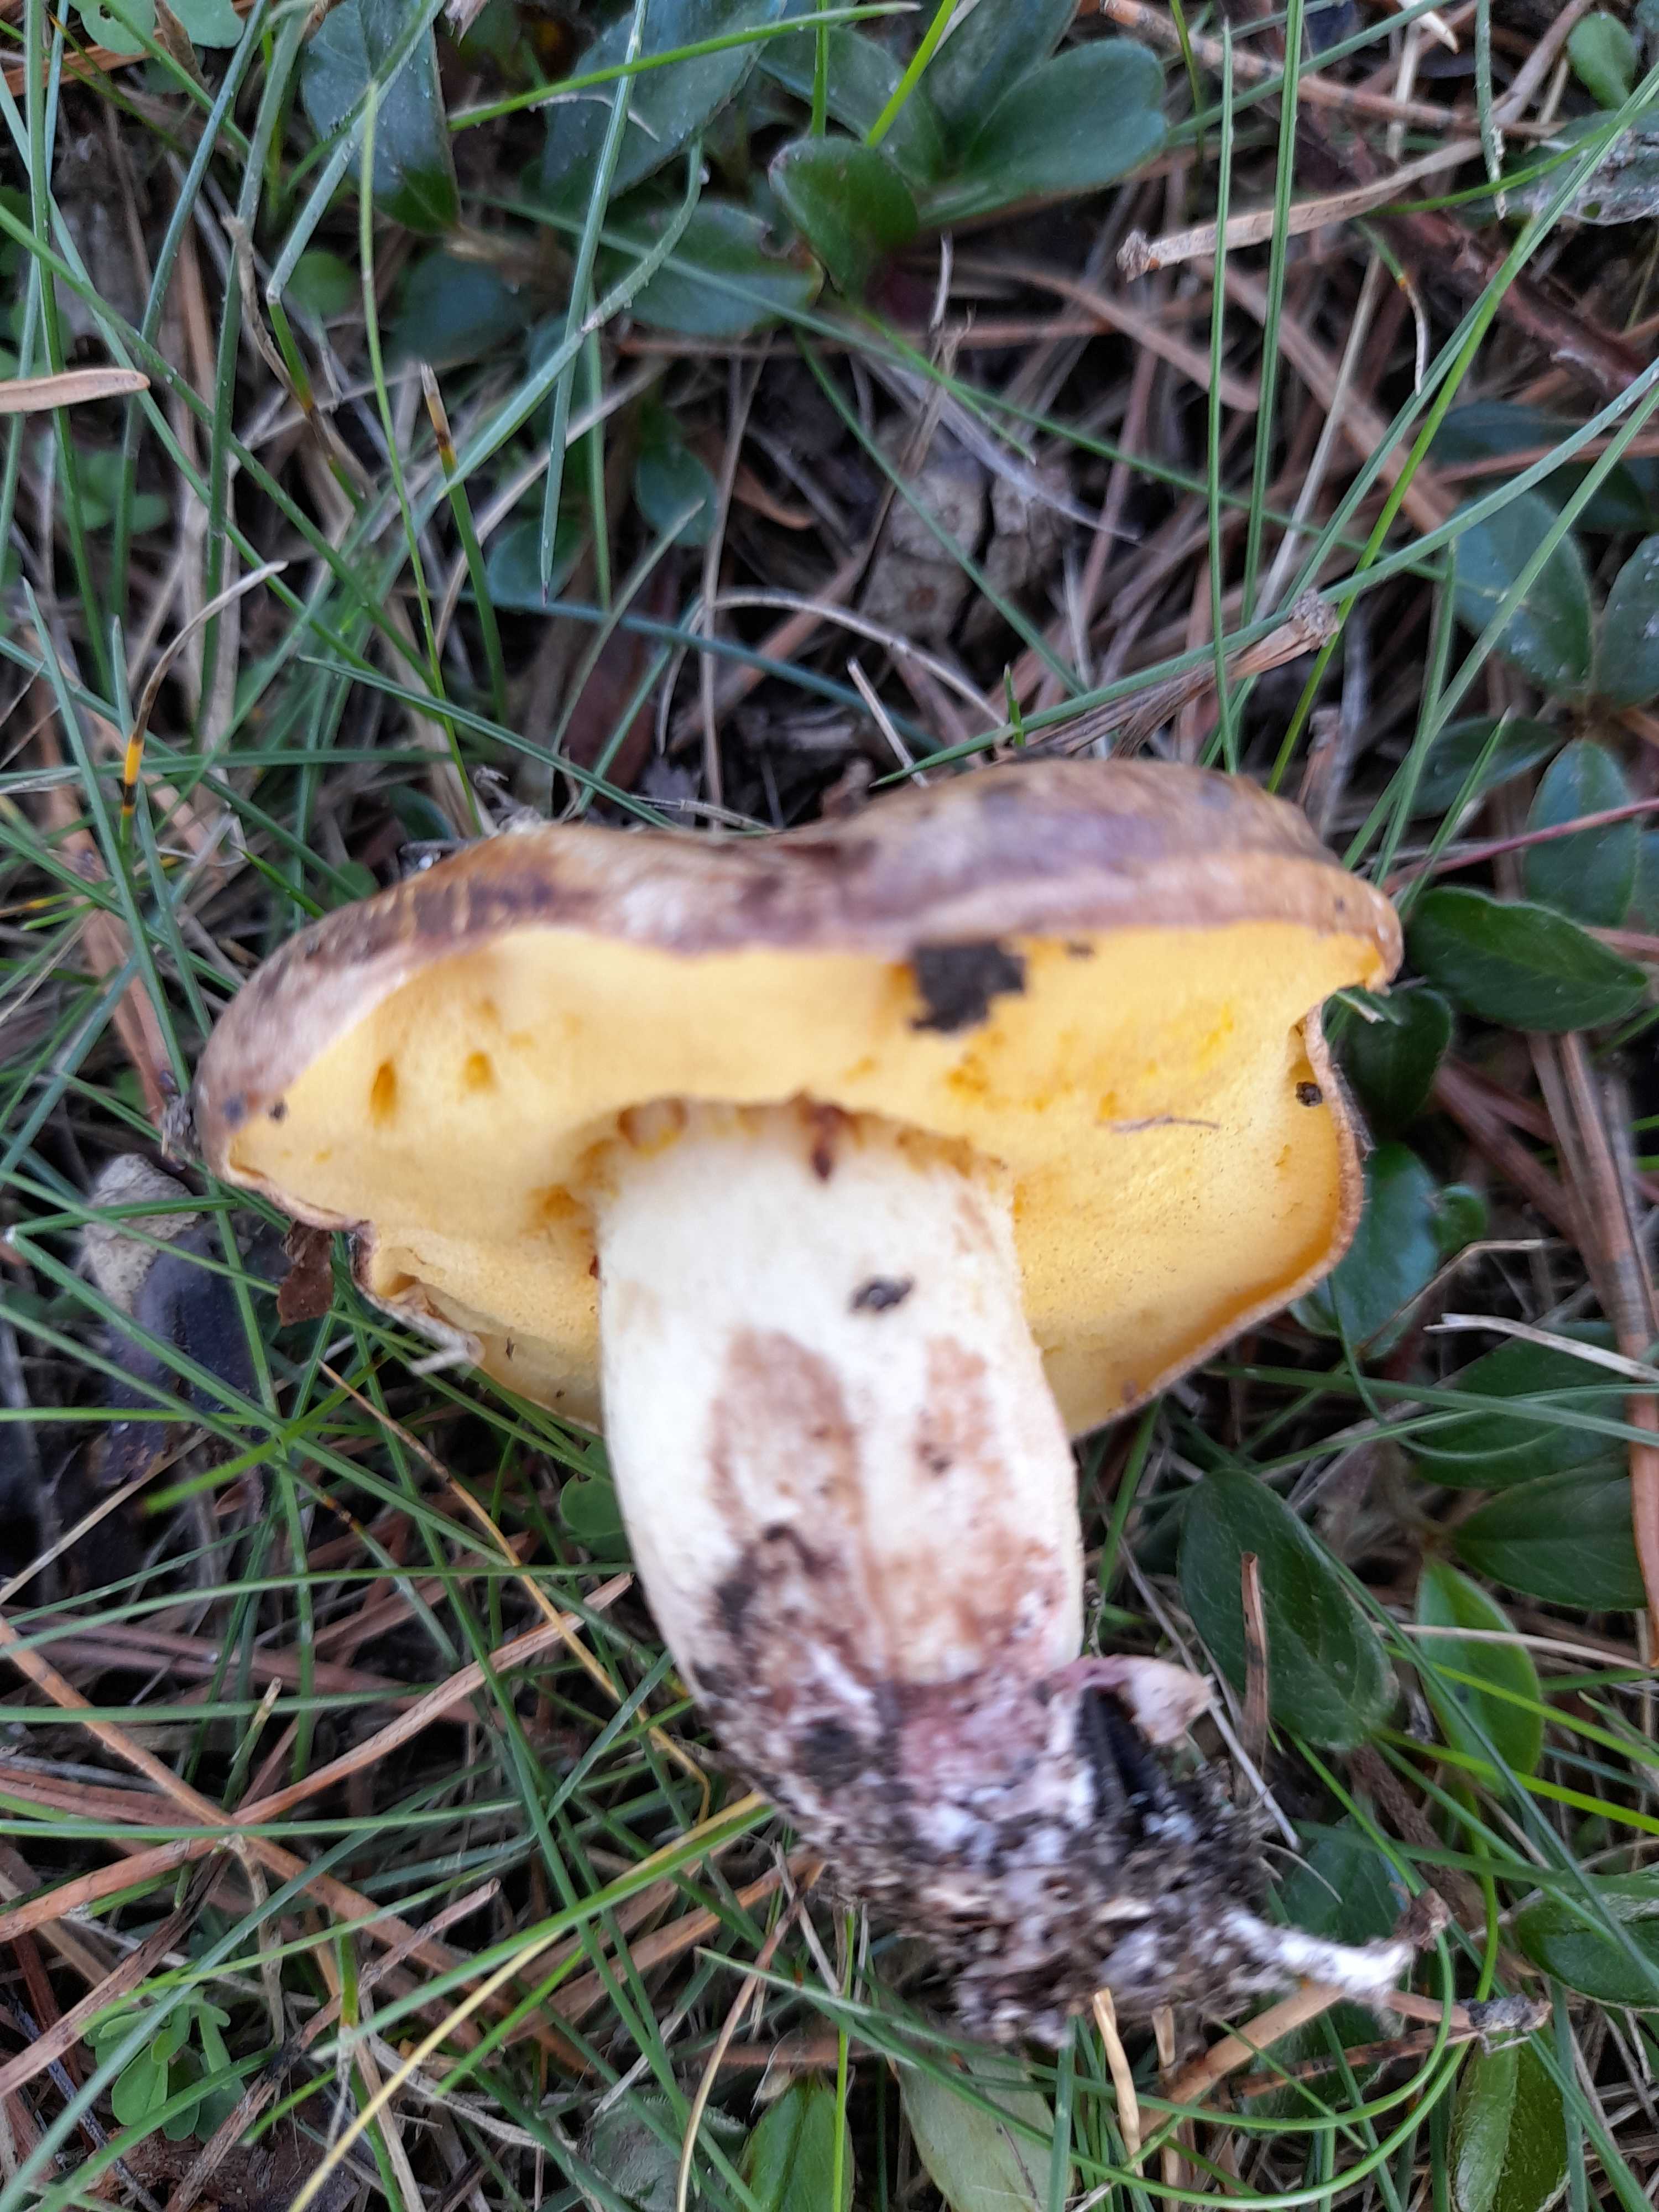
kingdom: Fungi
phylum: Basidiomycota
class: Agaricomycetes
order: Boletales
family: Suillaceae
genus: Suillus
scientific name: Suillus collinitus
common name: rosafodet slimrørhat
